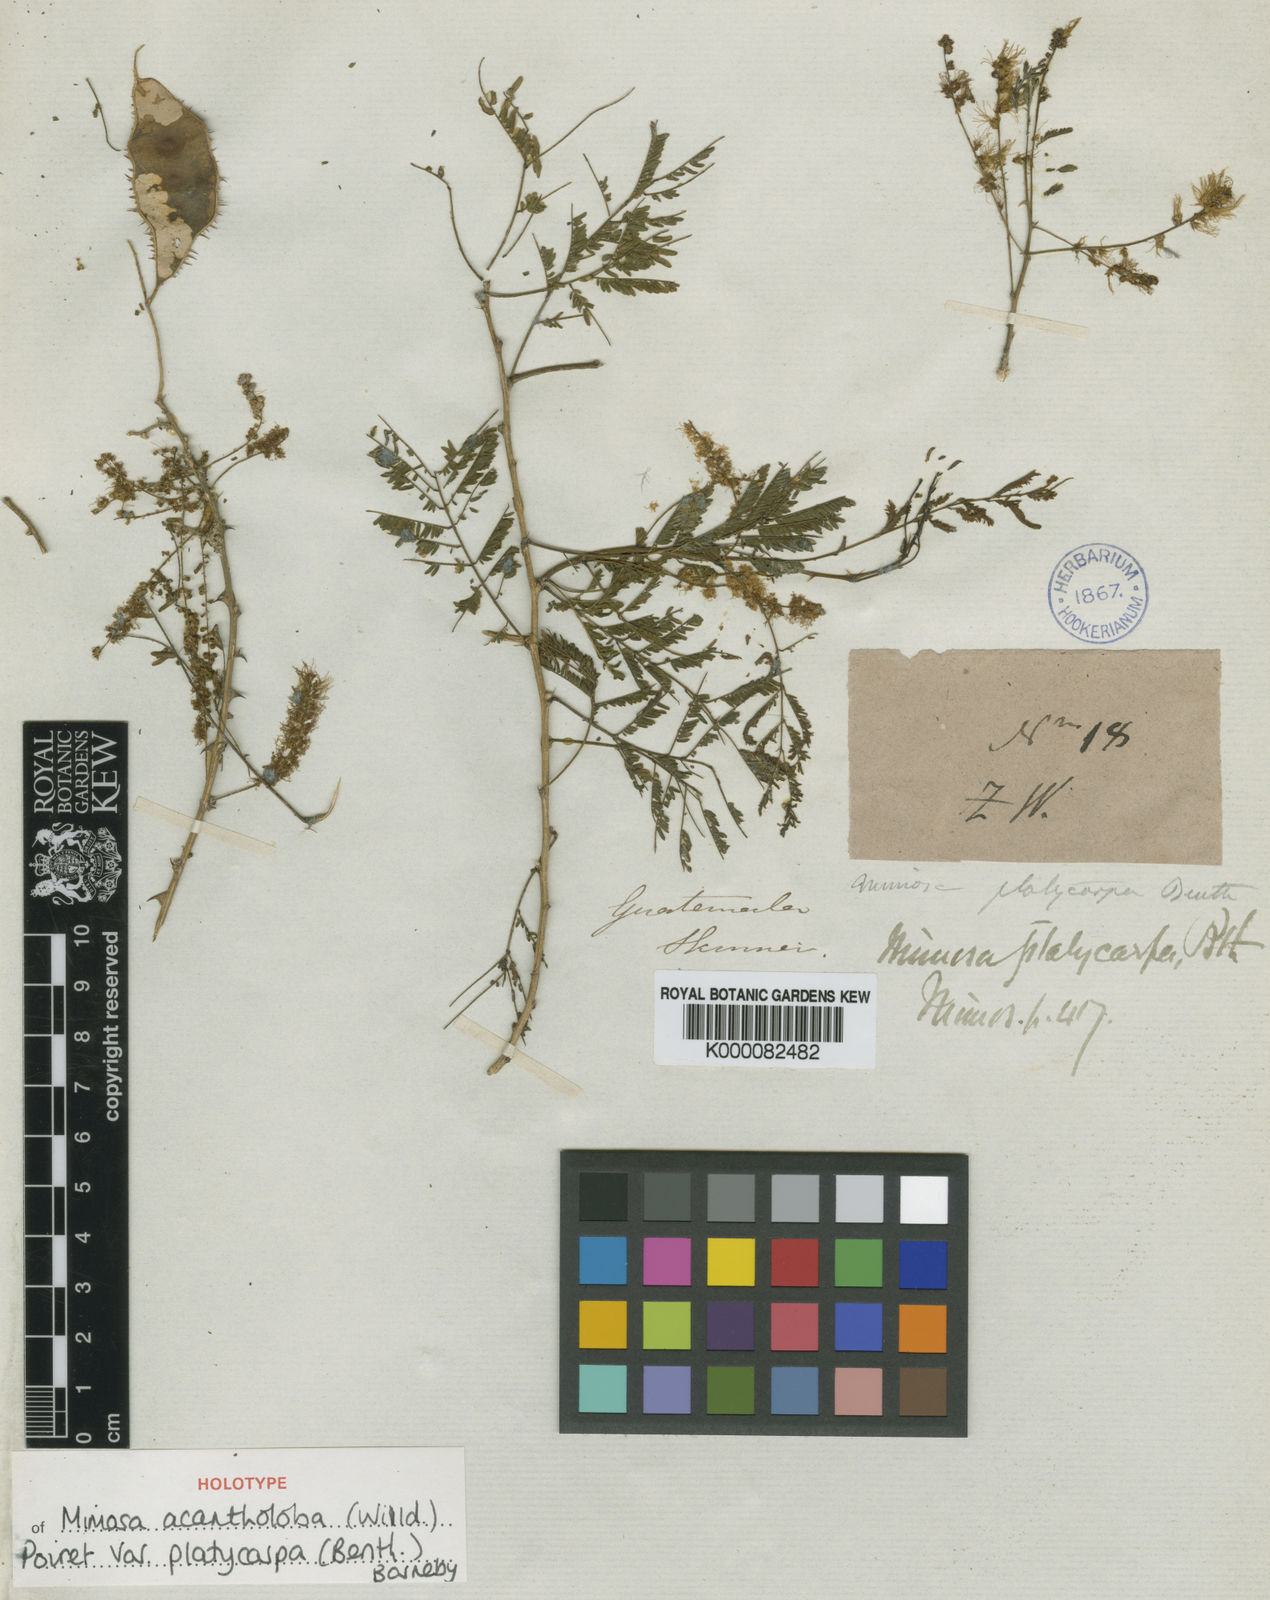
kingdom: Plantae
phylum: Tracheophyta
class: Magnoliopsida
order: Fabales
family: Fabaceae
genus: Mimosa
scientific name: Mimosa platycarpa
